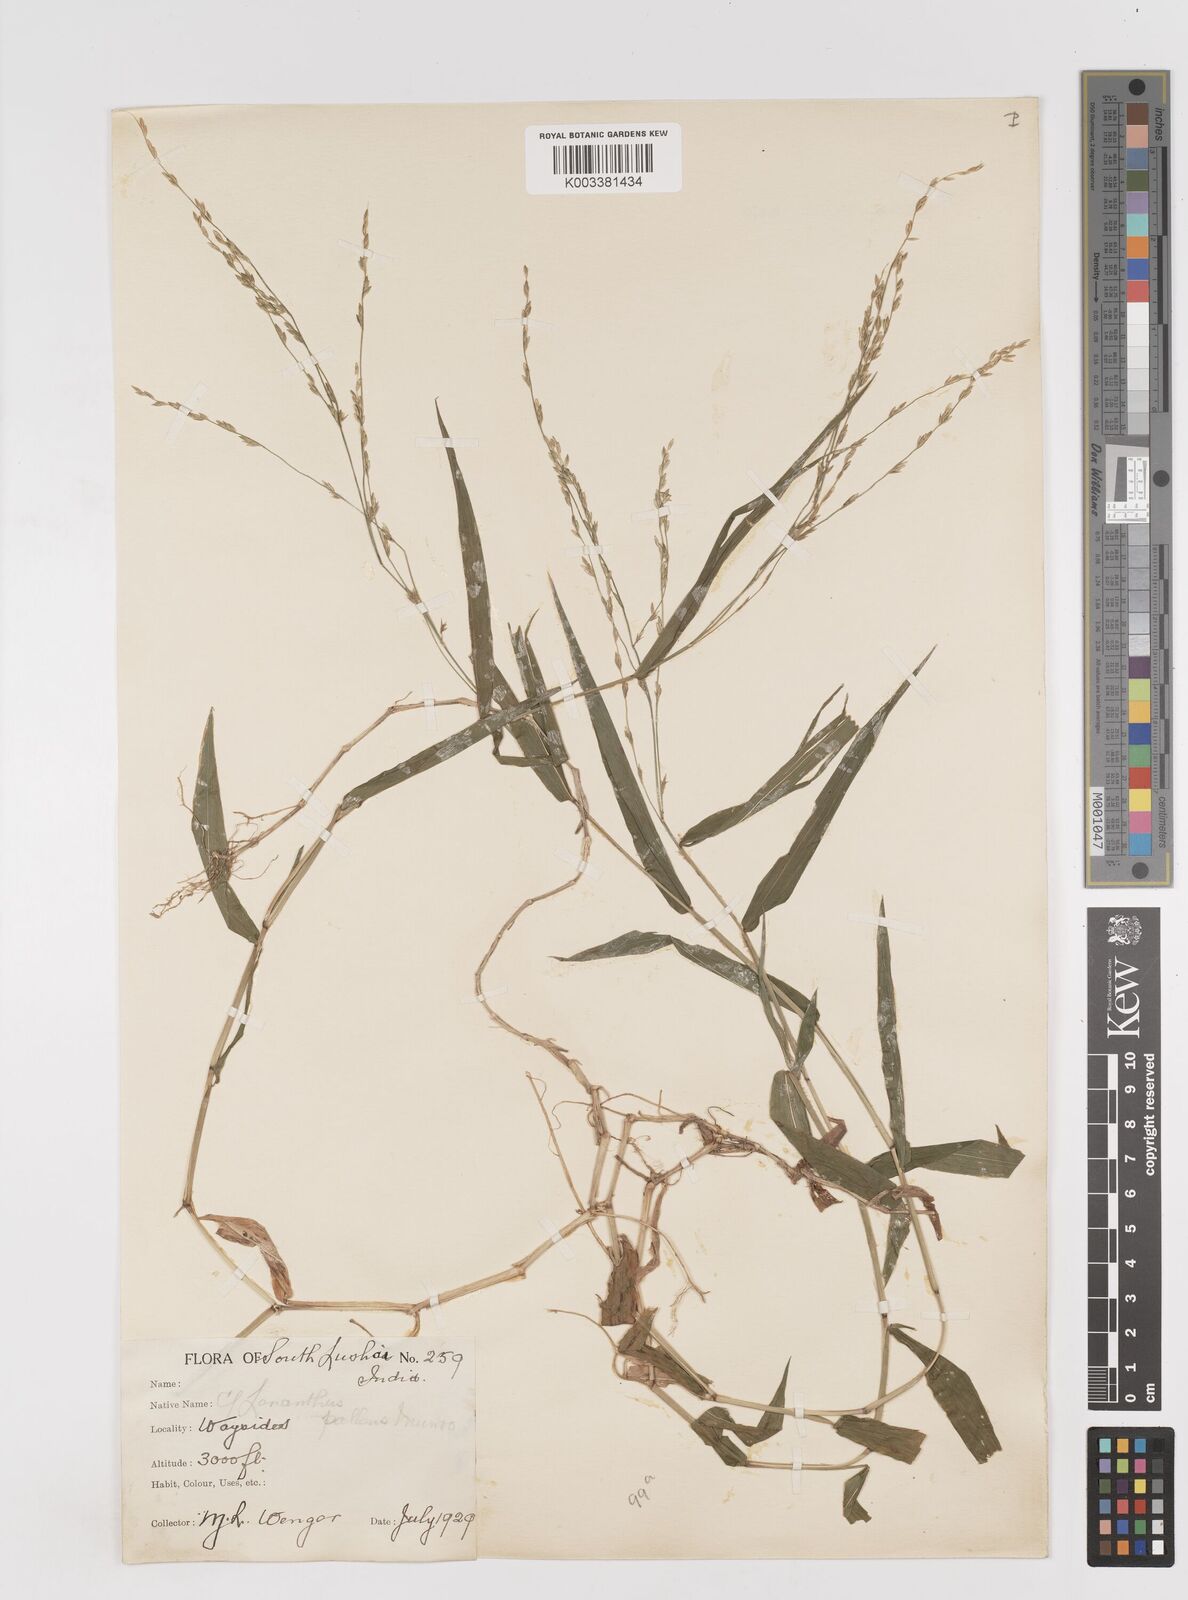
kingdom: Plantae
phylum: Tracheophyta
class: Liliopsida
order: Poales
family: Poaceae
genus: Ottochloa
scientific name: Ottochloa nodosa
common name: Slender-panic grass
